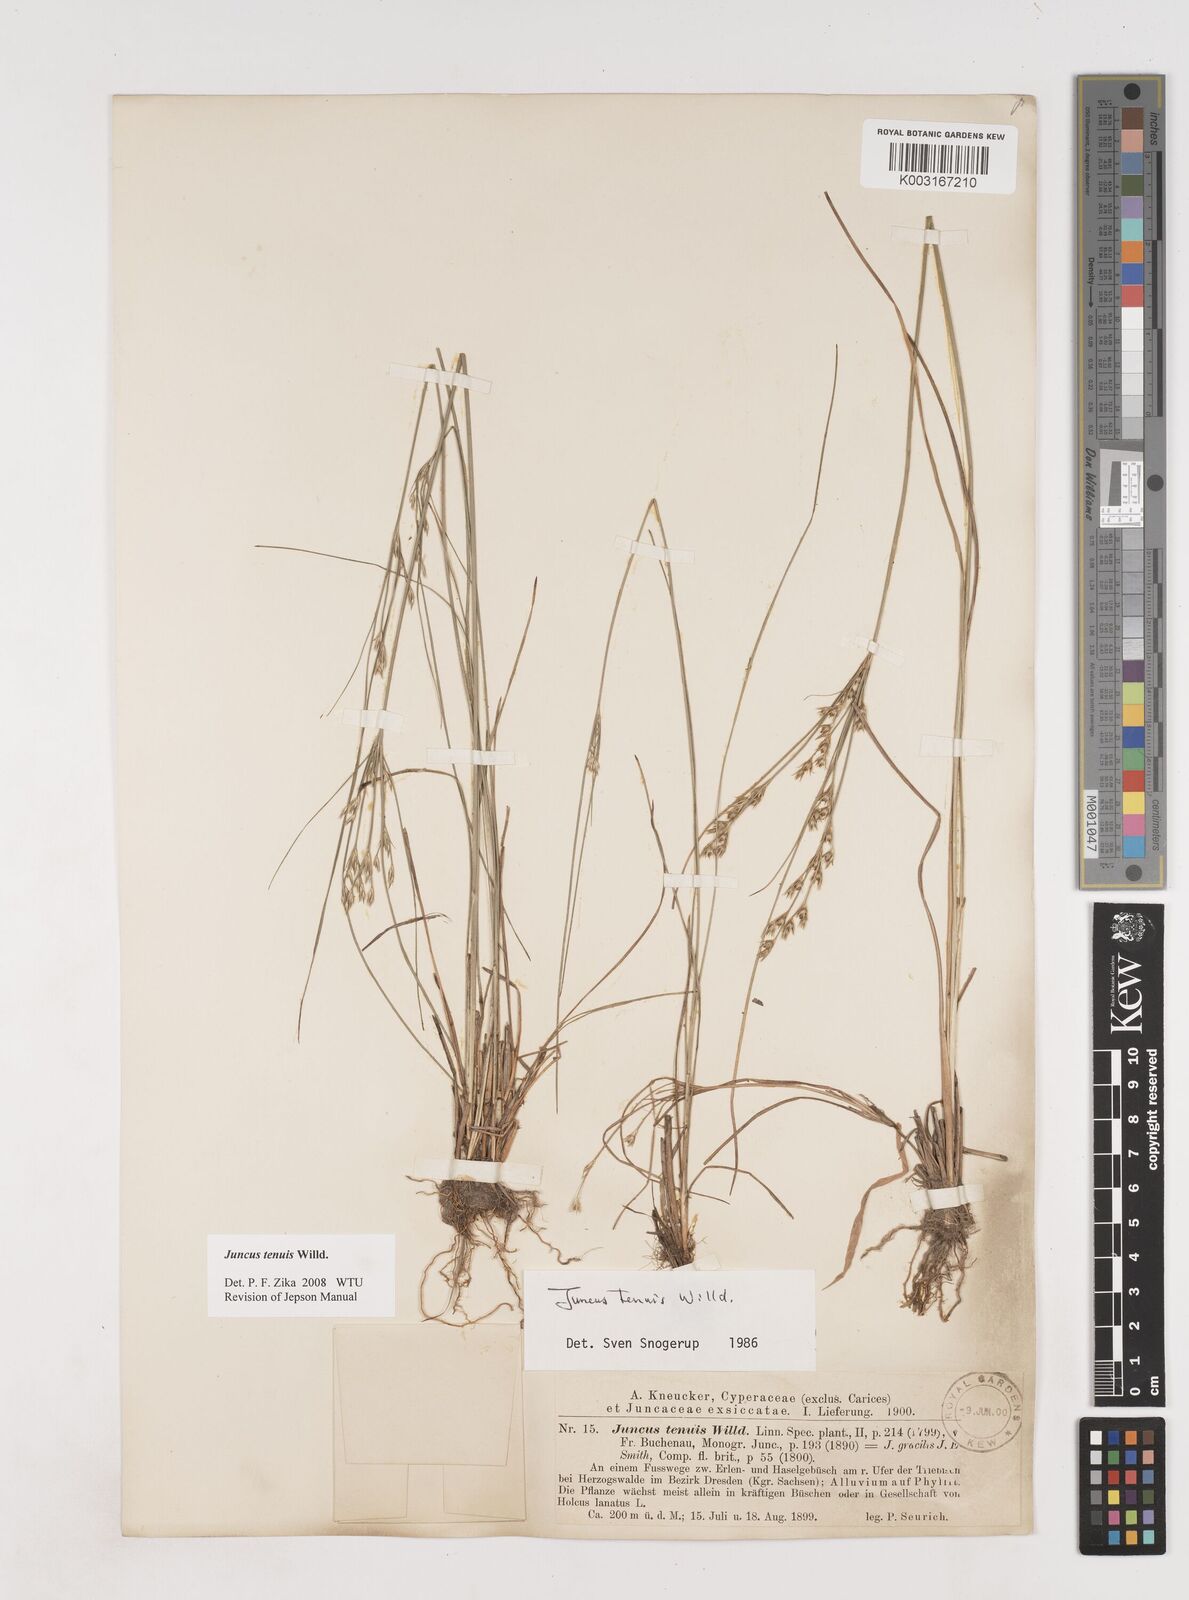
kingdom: Plantae
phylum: Tracheophyta
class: Liliopsida
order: Poales
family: Juncaceae
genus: Juncus
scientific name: Juncus tenuis
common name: Slender rush
